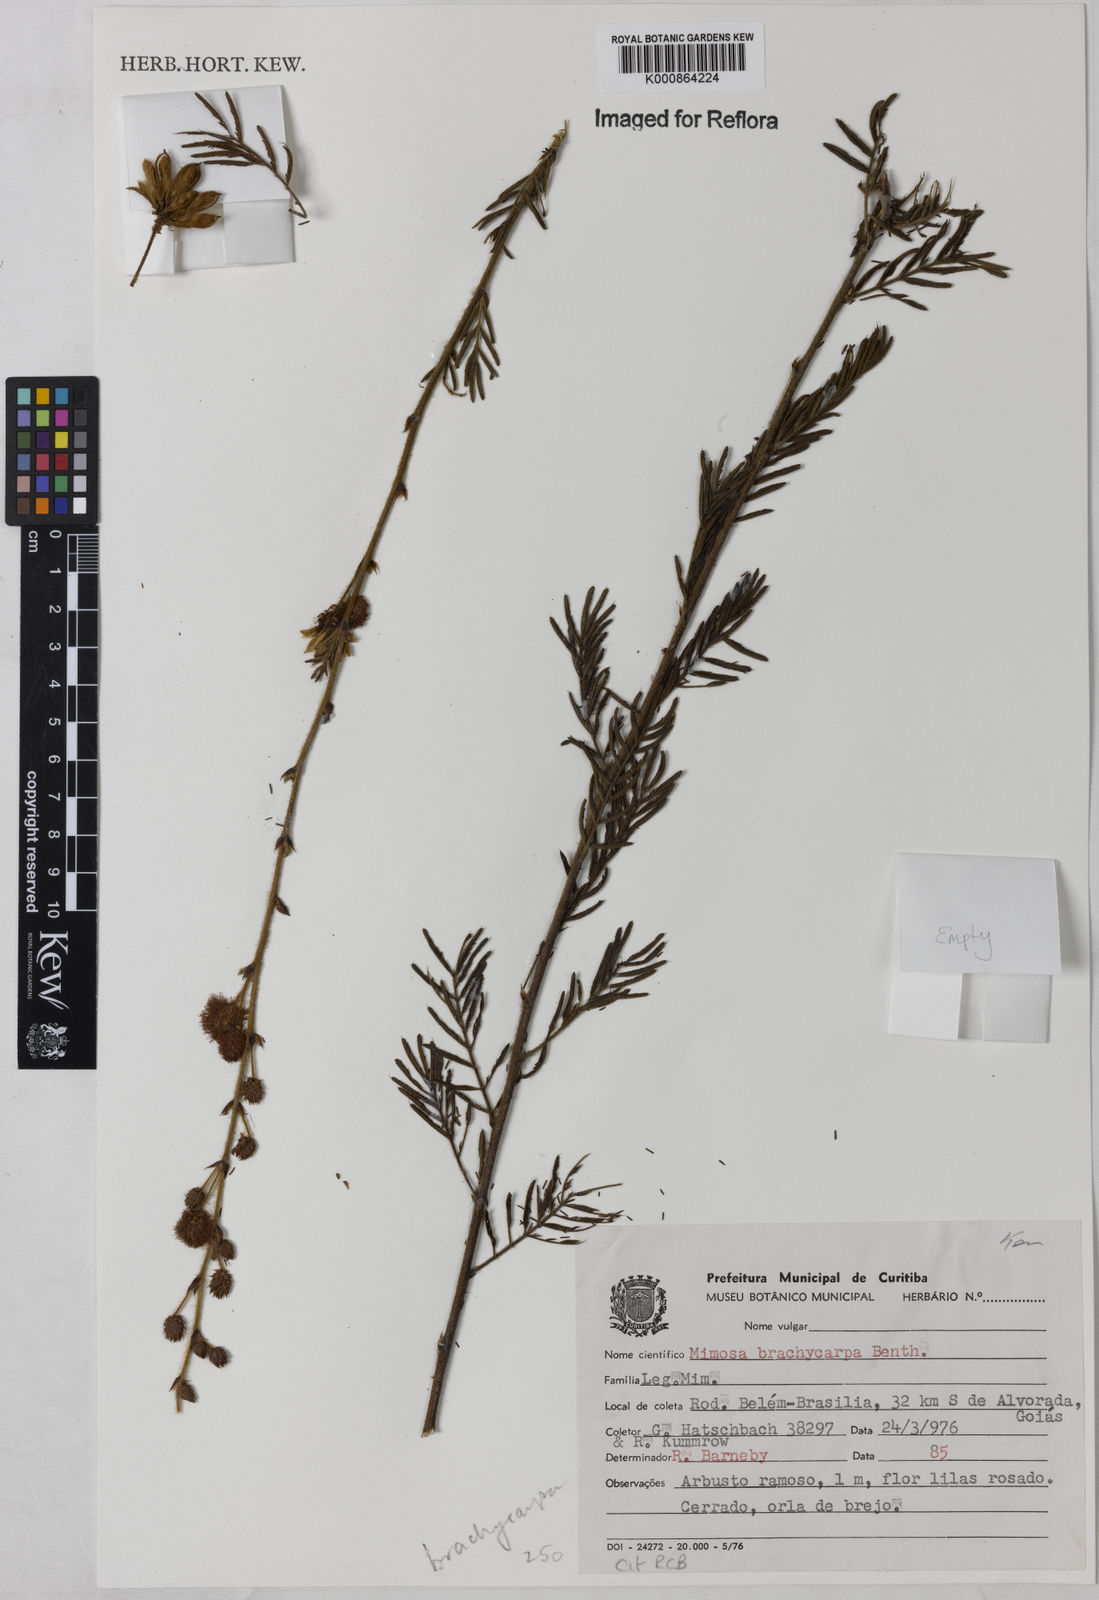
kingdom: Plantae
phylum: Tracheophyta
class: Magnoliopsida
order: Fabales
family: Fabaceae
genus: Mimosa
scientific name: Mimosa brachycarpa
